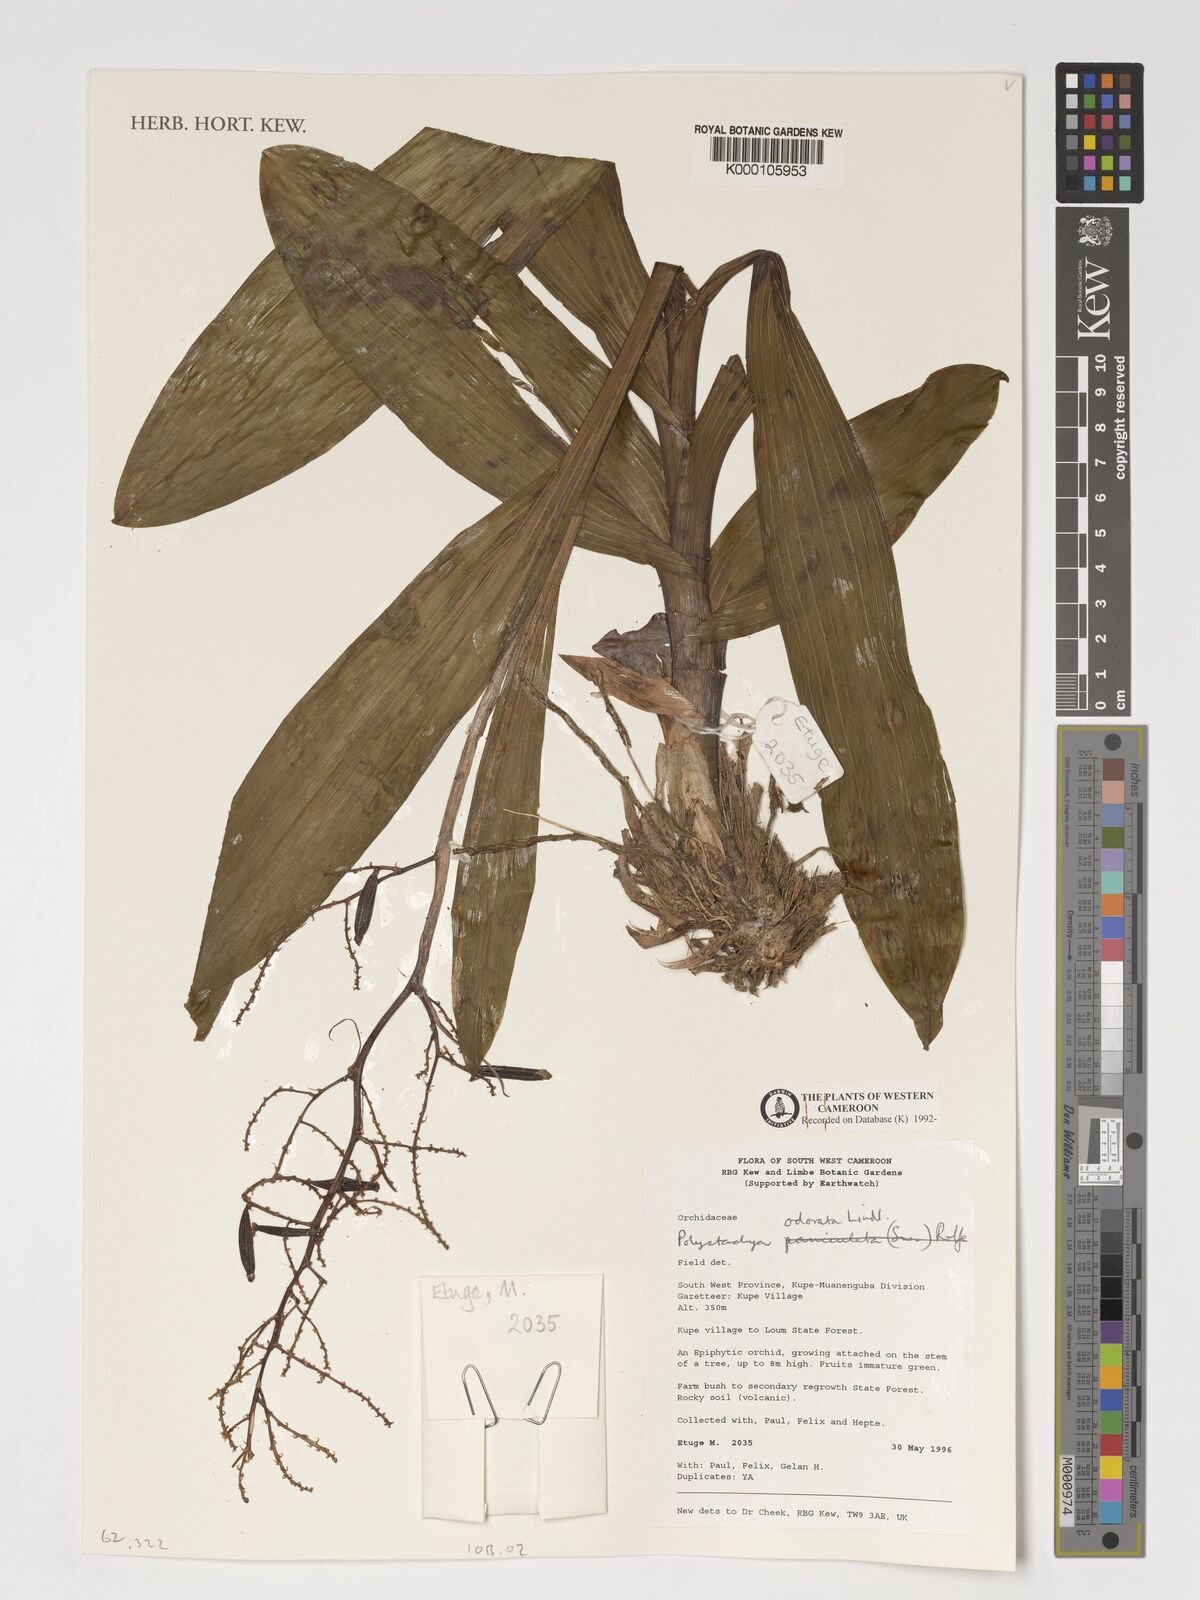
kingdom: Plantae
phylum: Tracheophyta
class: Liliopsida
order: Asparagales
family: Orchidaceae
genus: Polystachya
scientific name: Polystachya odorata
